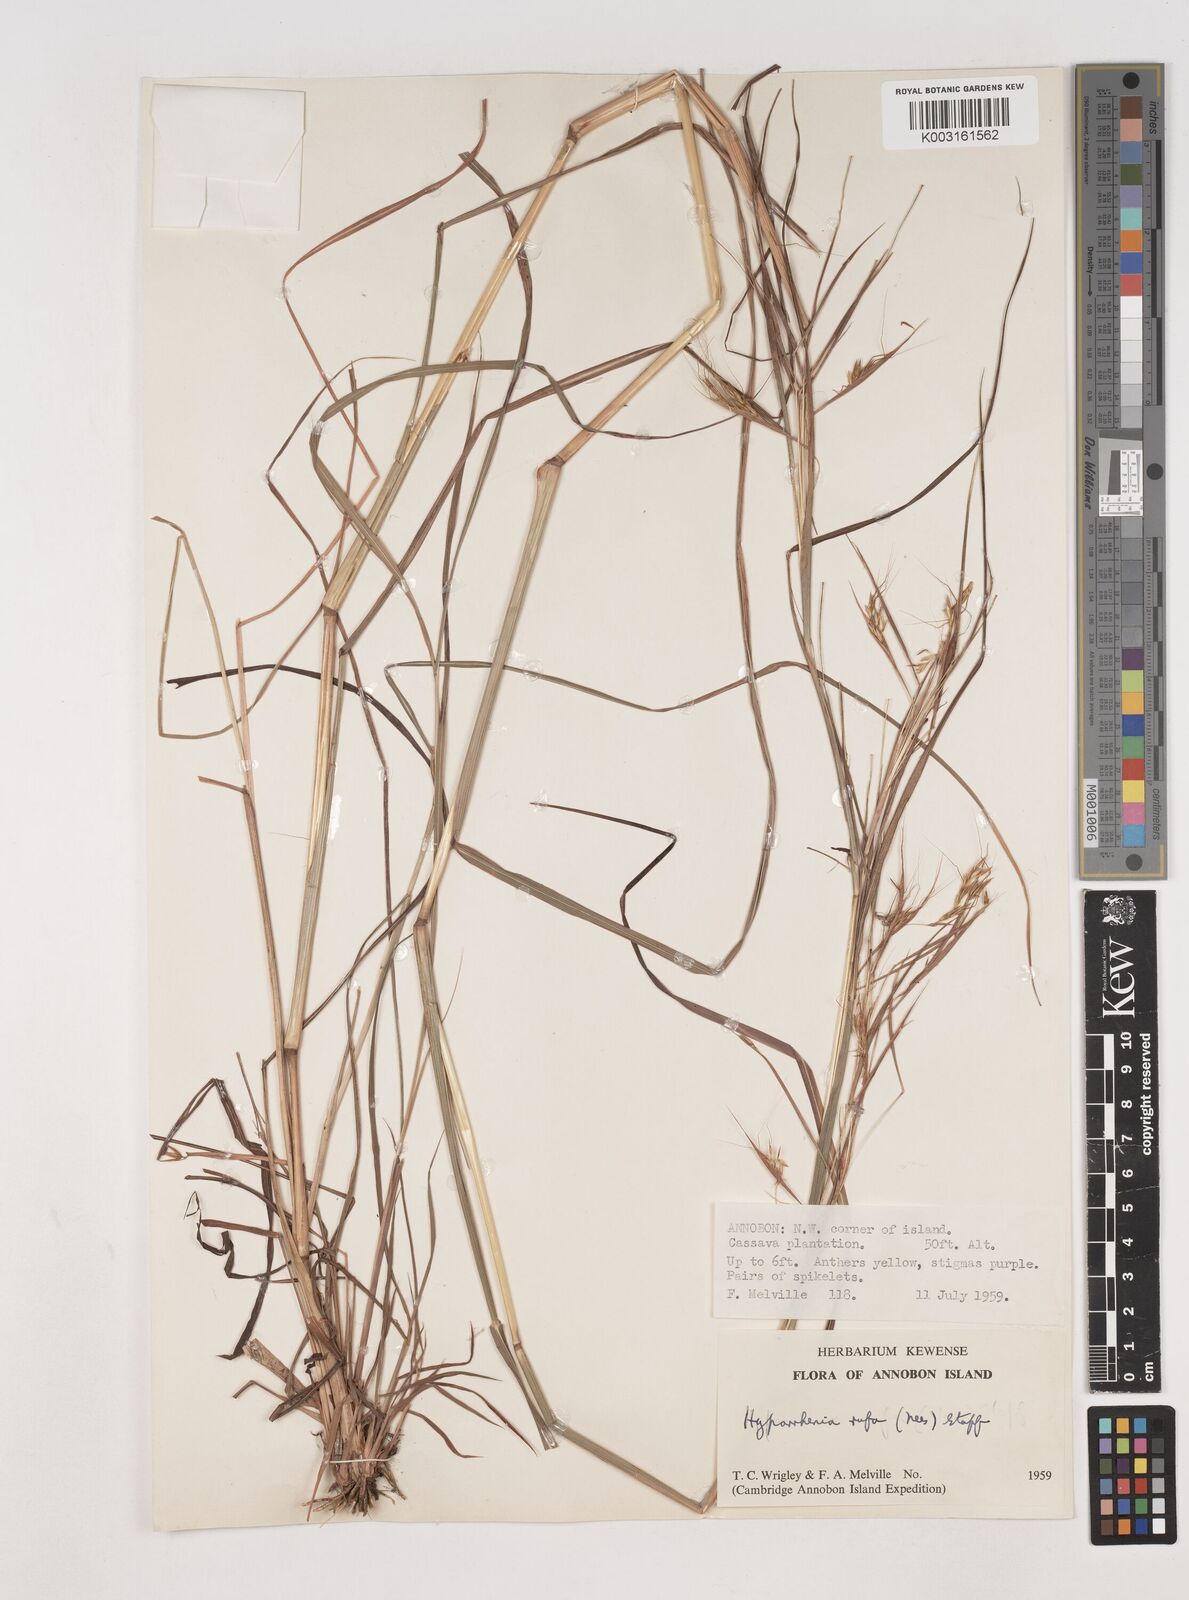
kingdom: Plantae
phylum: Tracheophyta
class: Liliopsida
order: Poales
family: Poaceae
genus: Hyparrhenia
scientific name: Hyparrhenia rufa
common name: Jaraguagrass
